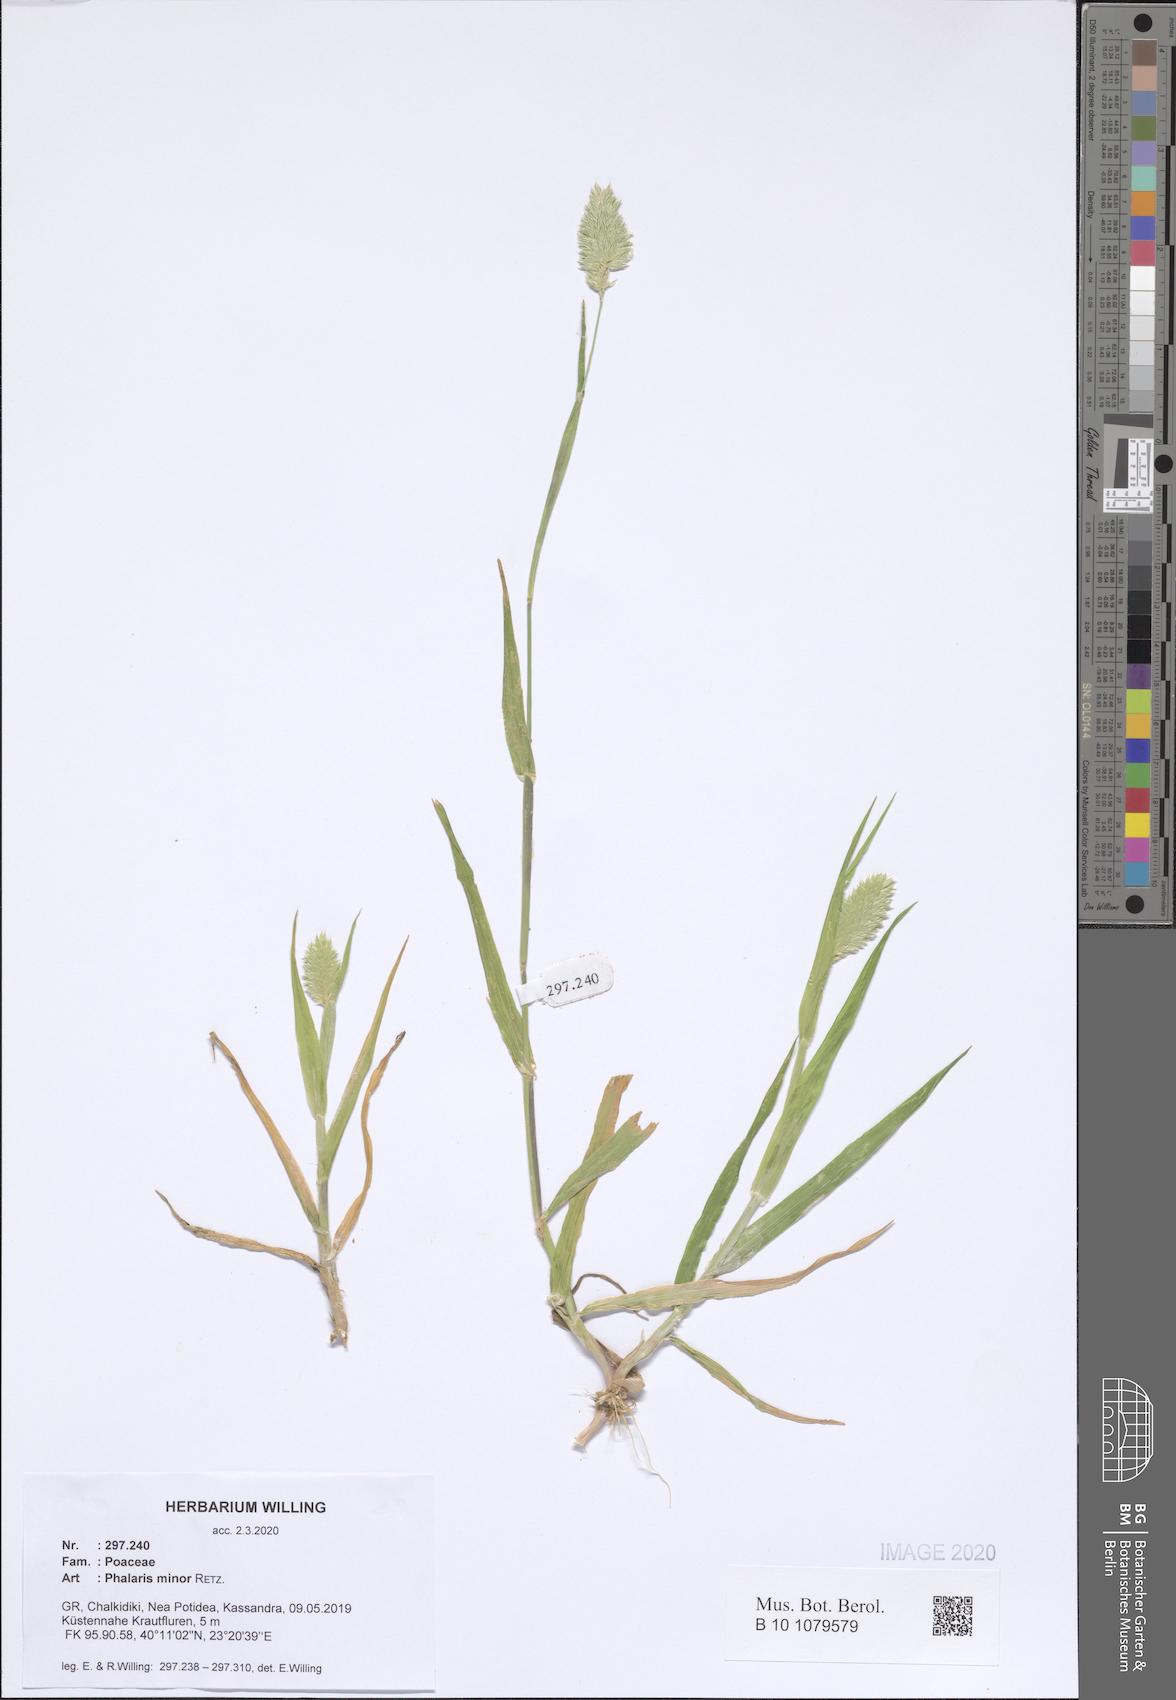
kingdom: Plantae
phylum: Tracheophyta
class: Liliopsida
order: Poales
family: Poaceae
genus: Phalaris
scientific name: Phalaris minor
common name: Littleseed canarygrass
